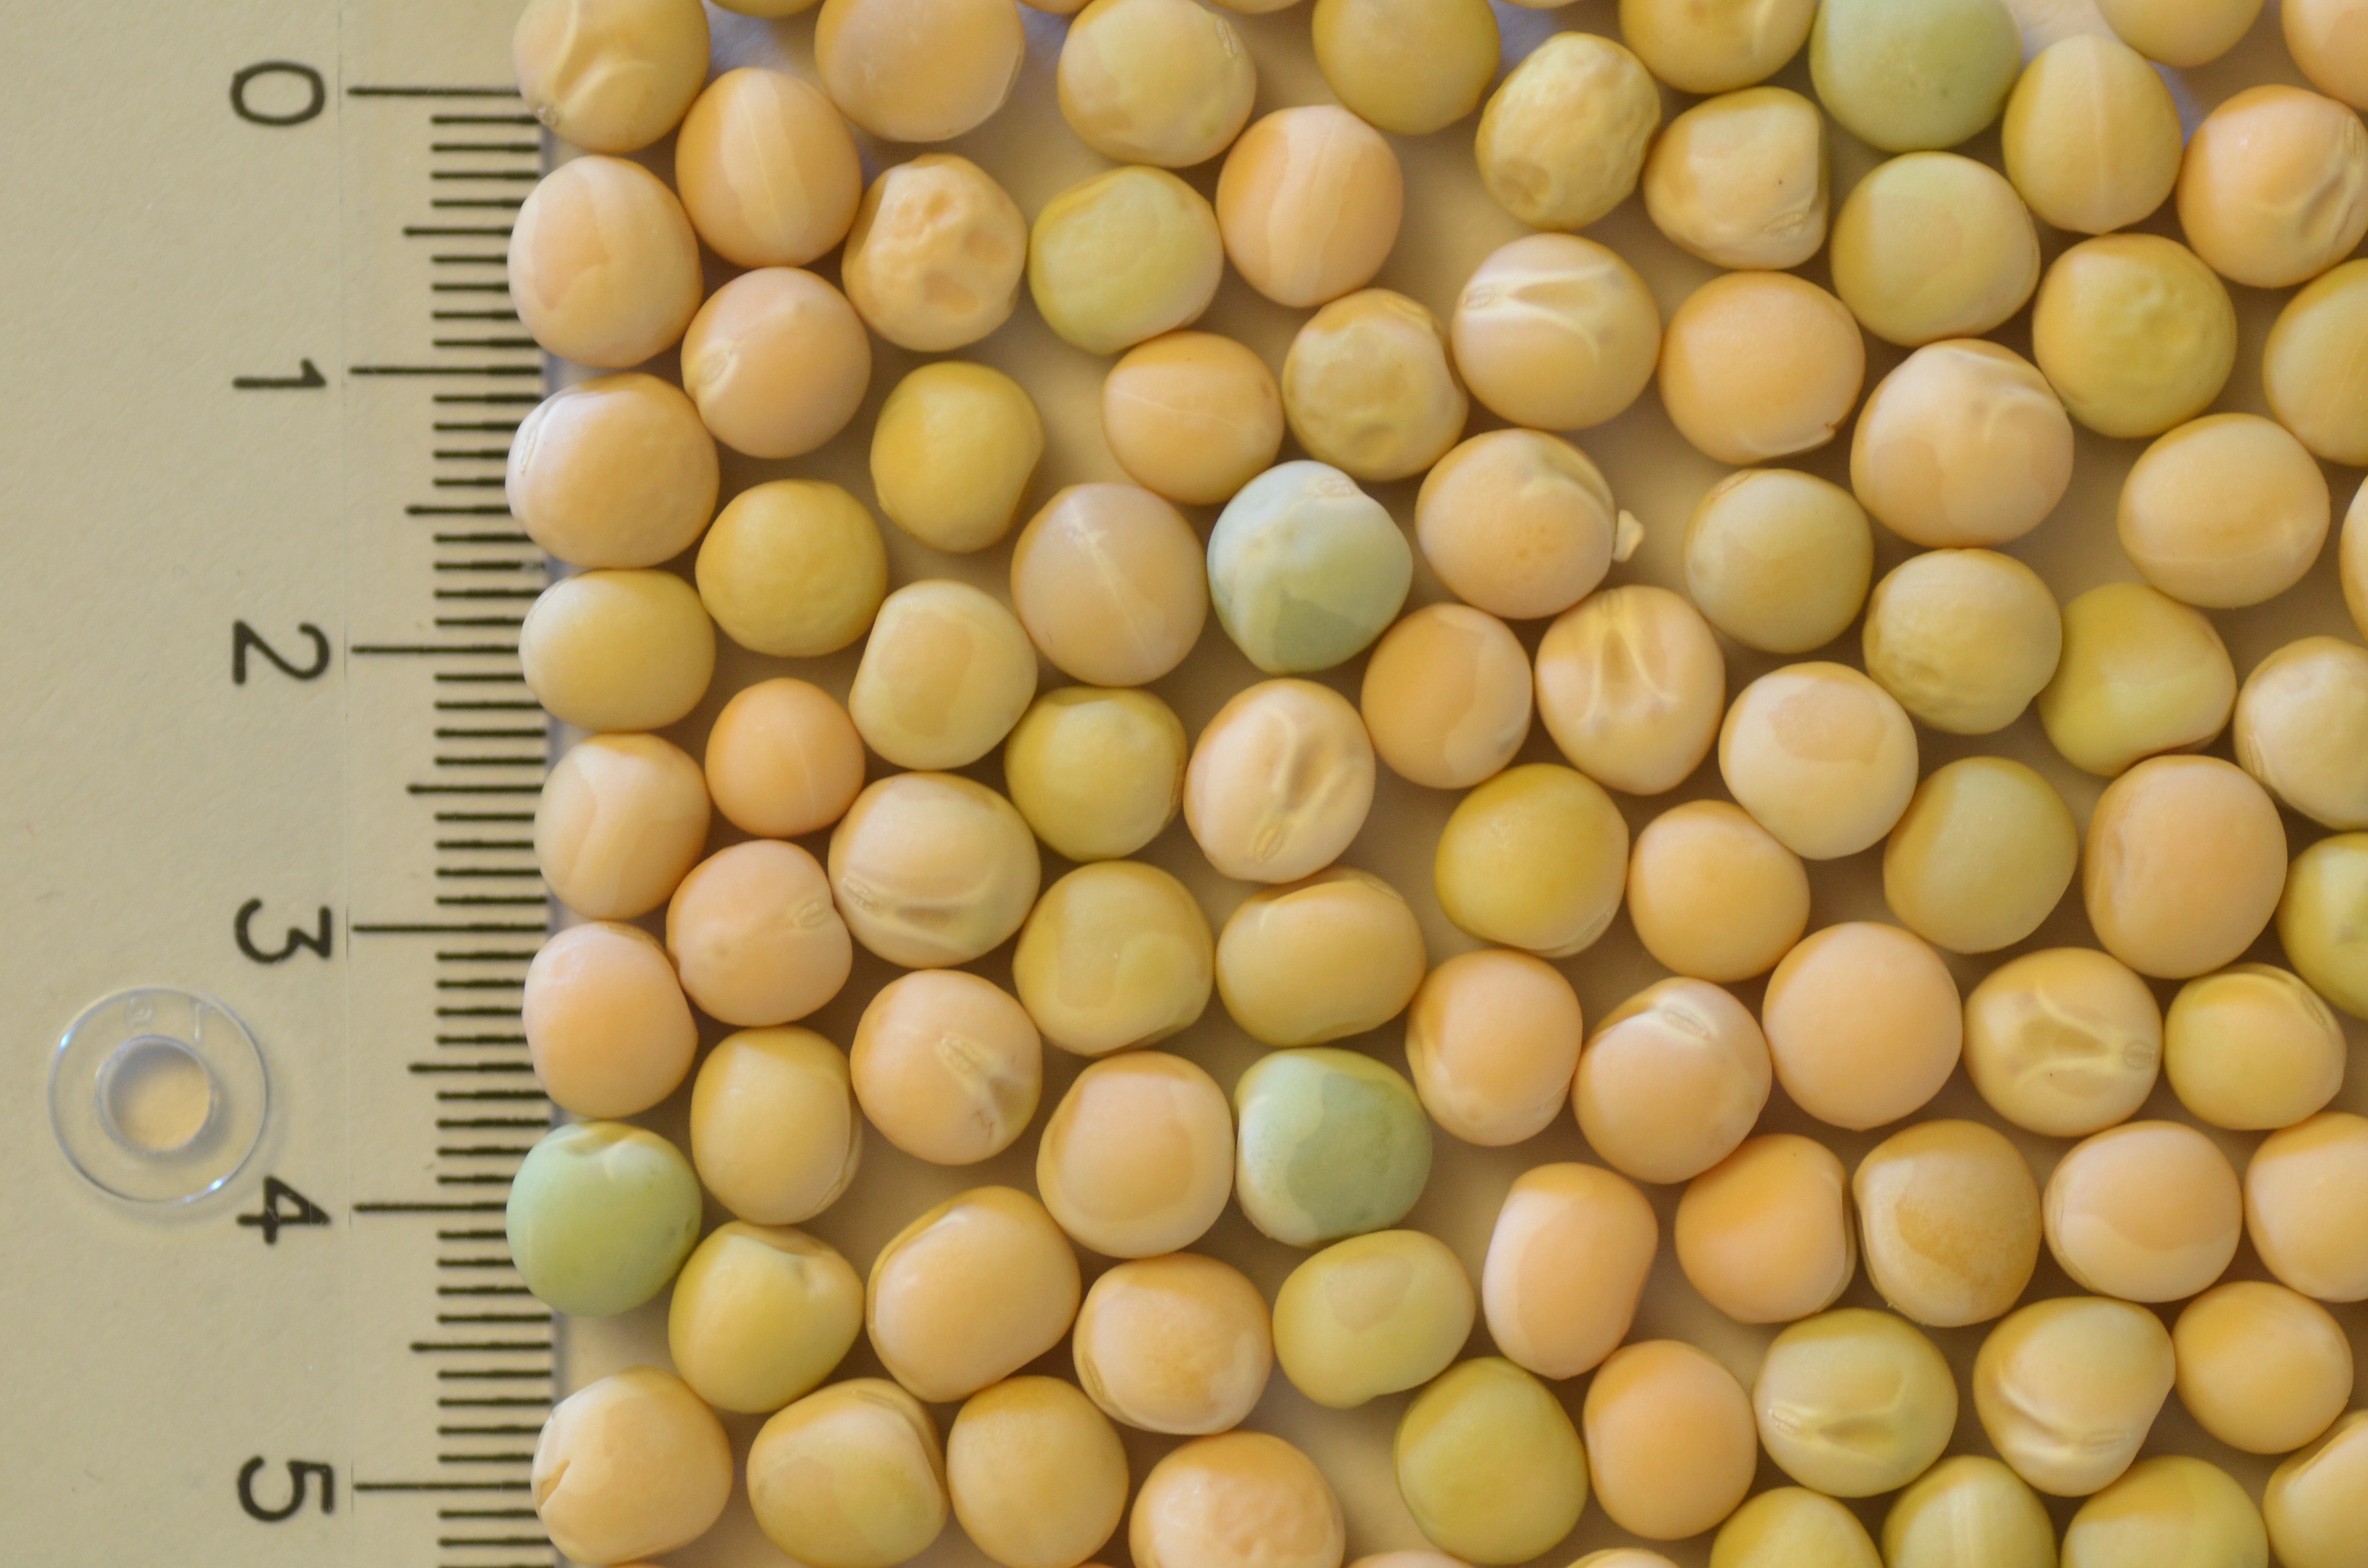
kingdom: Plantae
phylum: Tracheophyta
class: Magnoliopsida
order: Fabales
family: Fabaceae
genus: Lathyrus
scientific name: Lathyrus oleraceus
